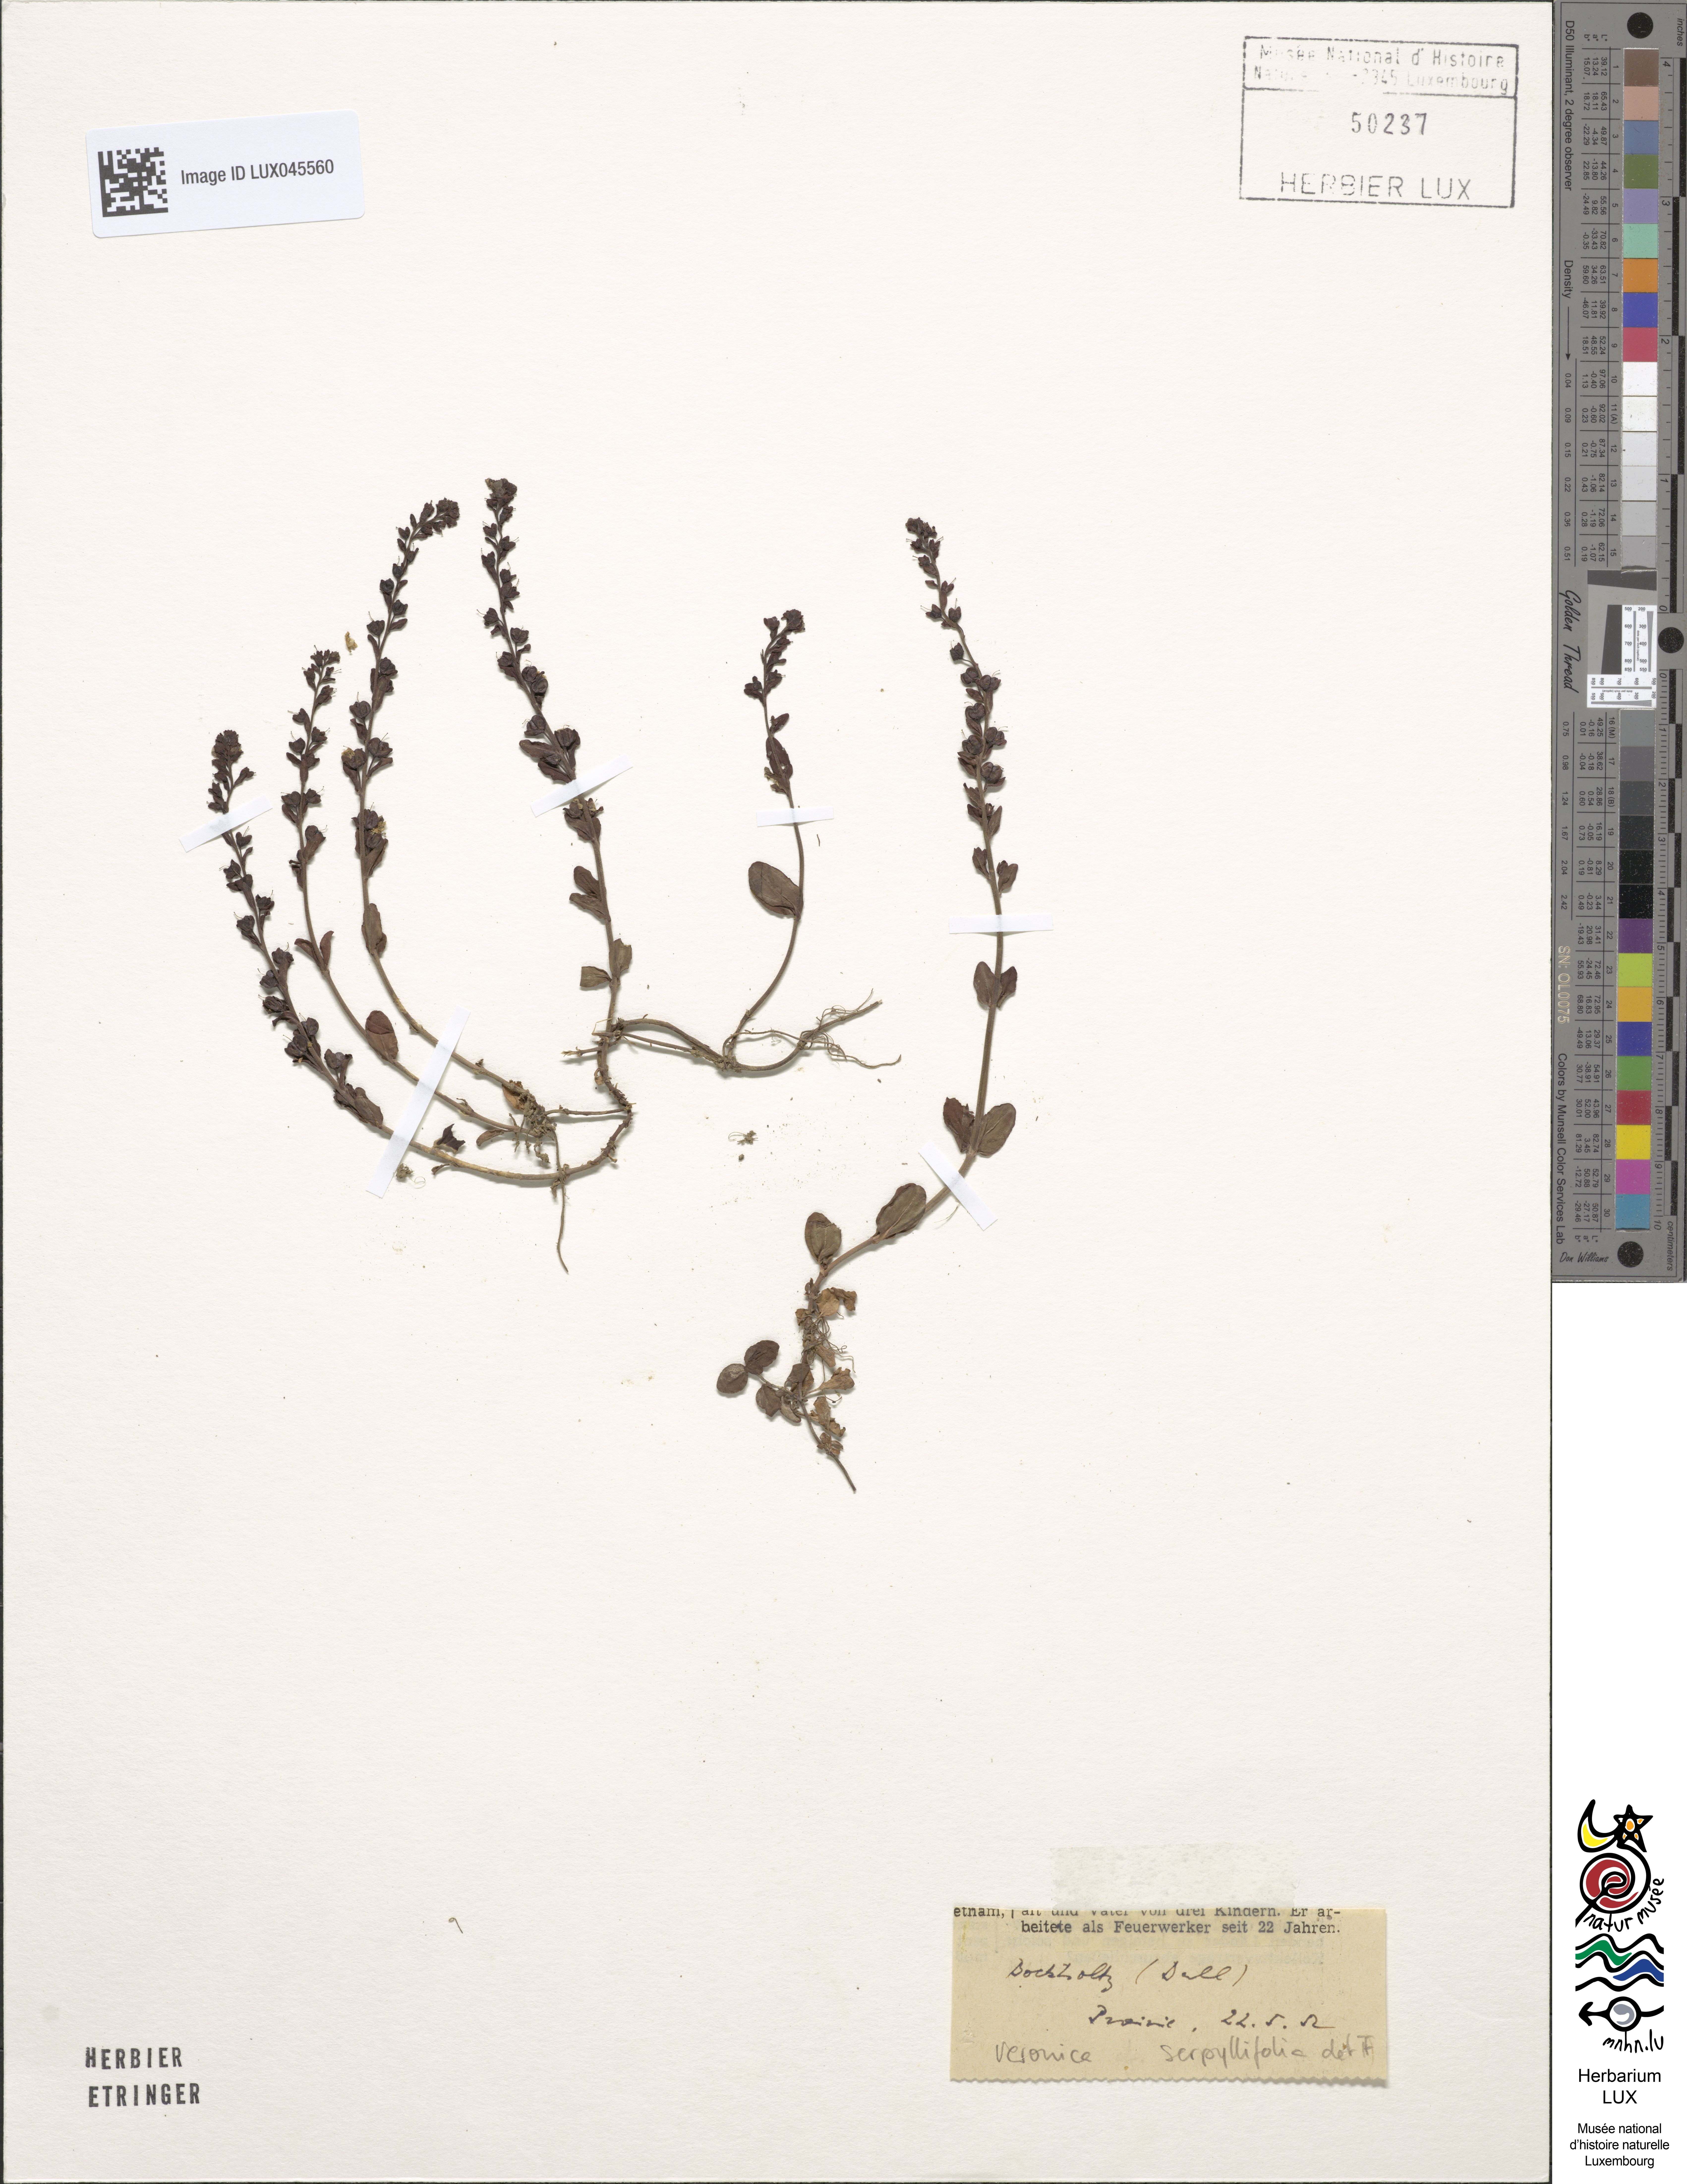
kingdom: Plantae
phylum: Tracheophyta
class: Magnoliopsida
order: Lamiales
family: Plantaginaceae
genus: Veronica
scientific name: Veronica serpyllifolia
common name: Thyme-leaved speedwell
